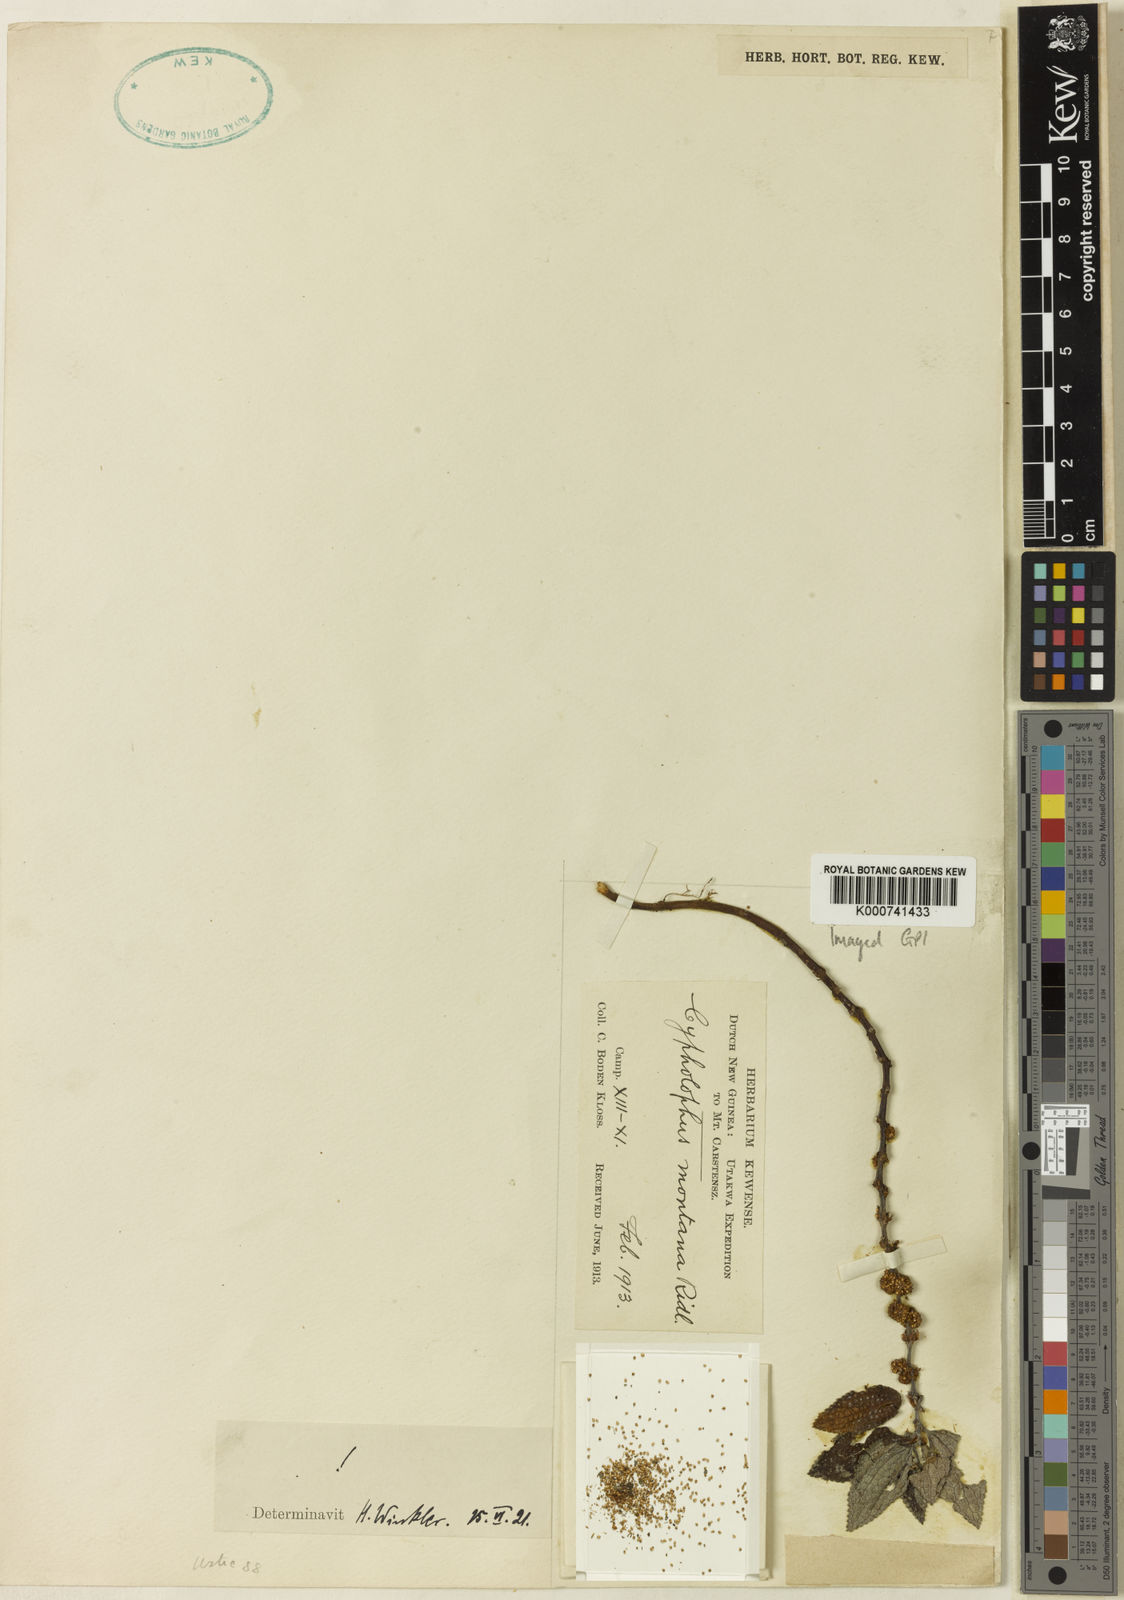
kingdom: Plantae
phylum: Tracheophyta
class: Magnoliopsida
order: Rosales
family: Urticaceae
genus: Cypholophus
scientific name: Cypholophus montanus
